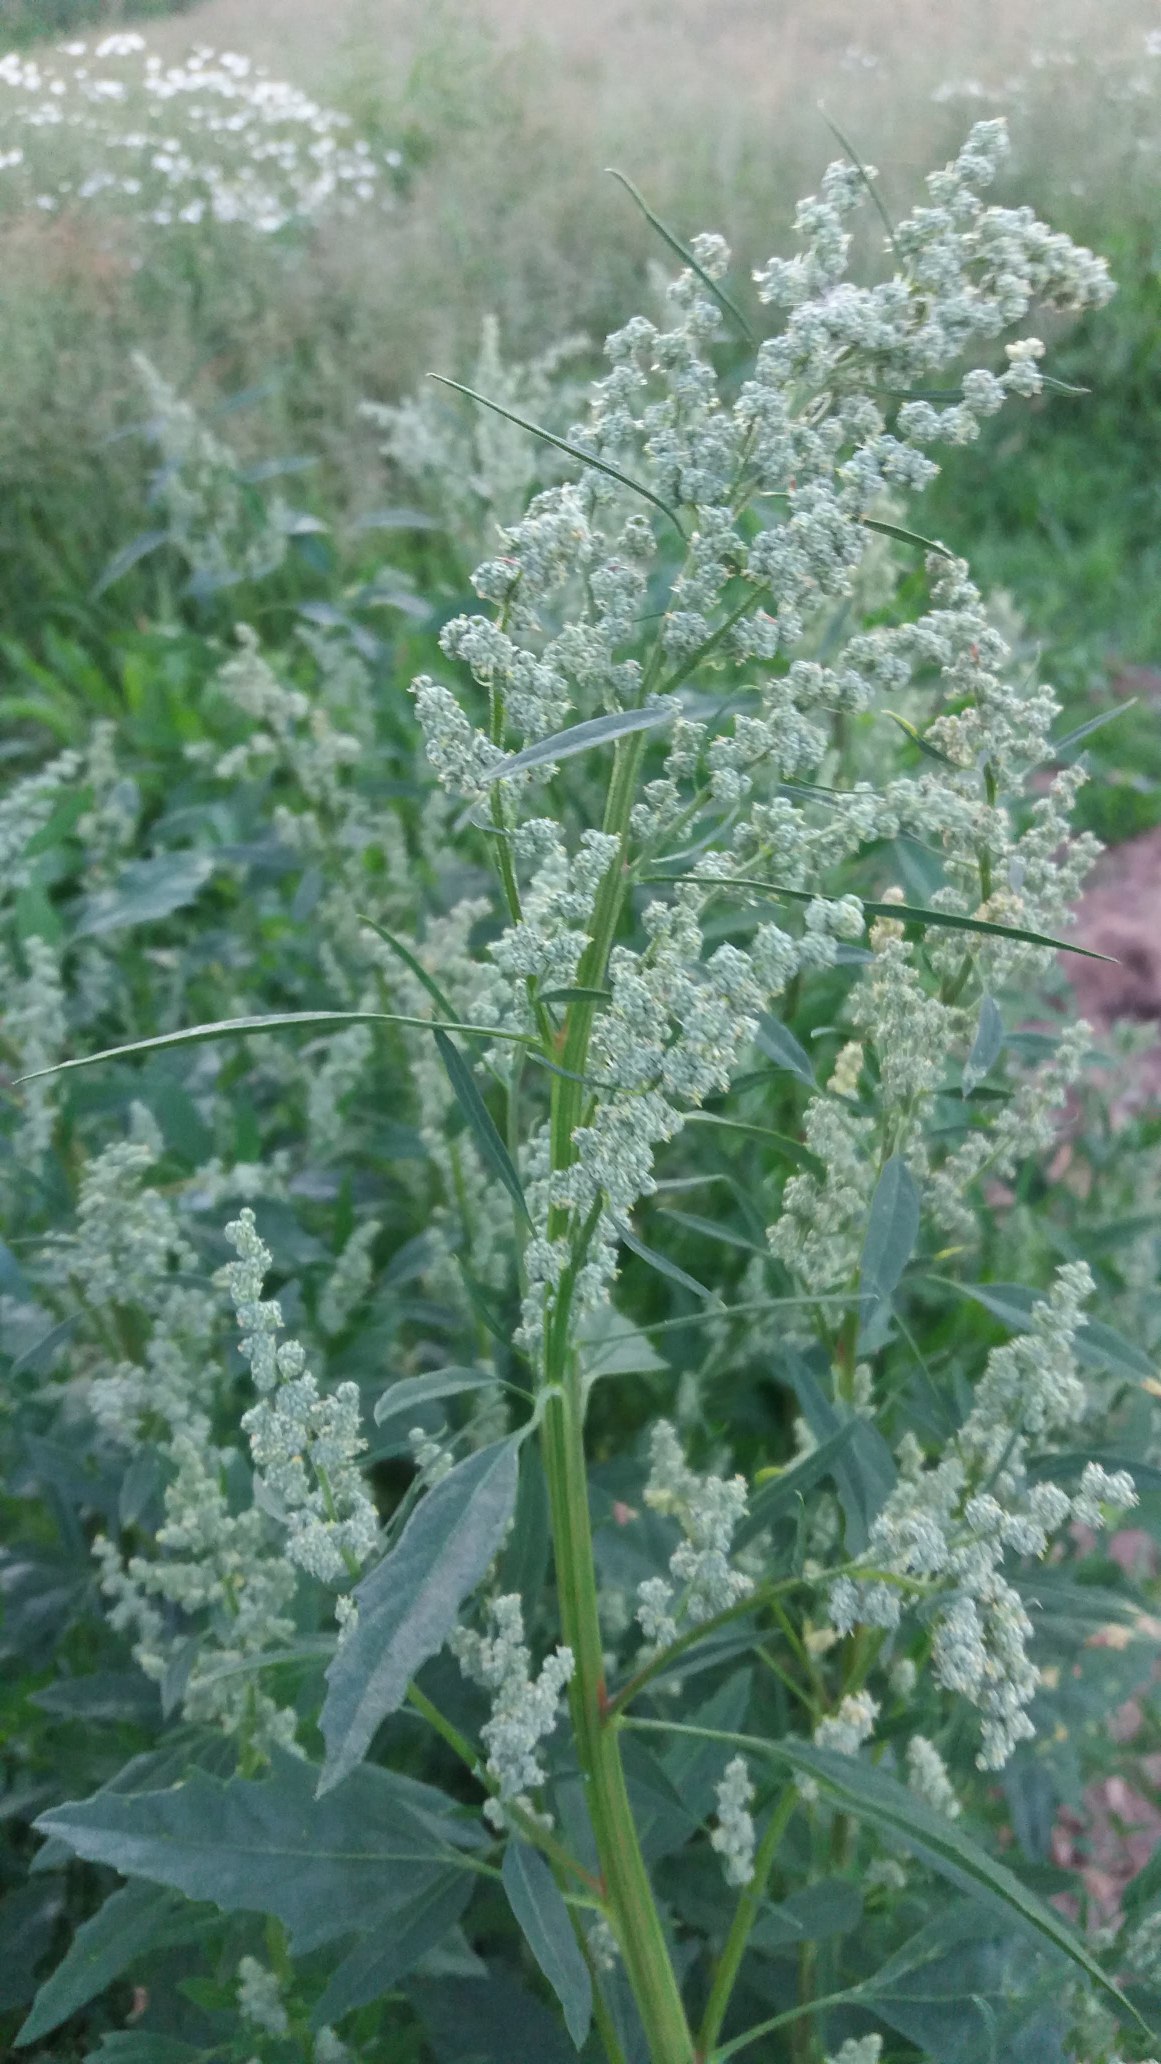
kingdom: Plantae
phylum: Tracheophyta
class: Magnoliopsida
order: Caryophyllales
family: Amaranthaceae
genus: Chenopodium
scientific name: Chenopodium album
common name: Hvidmelet gåsefod
